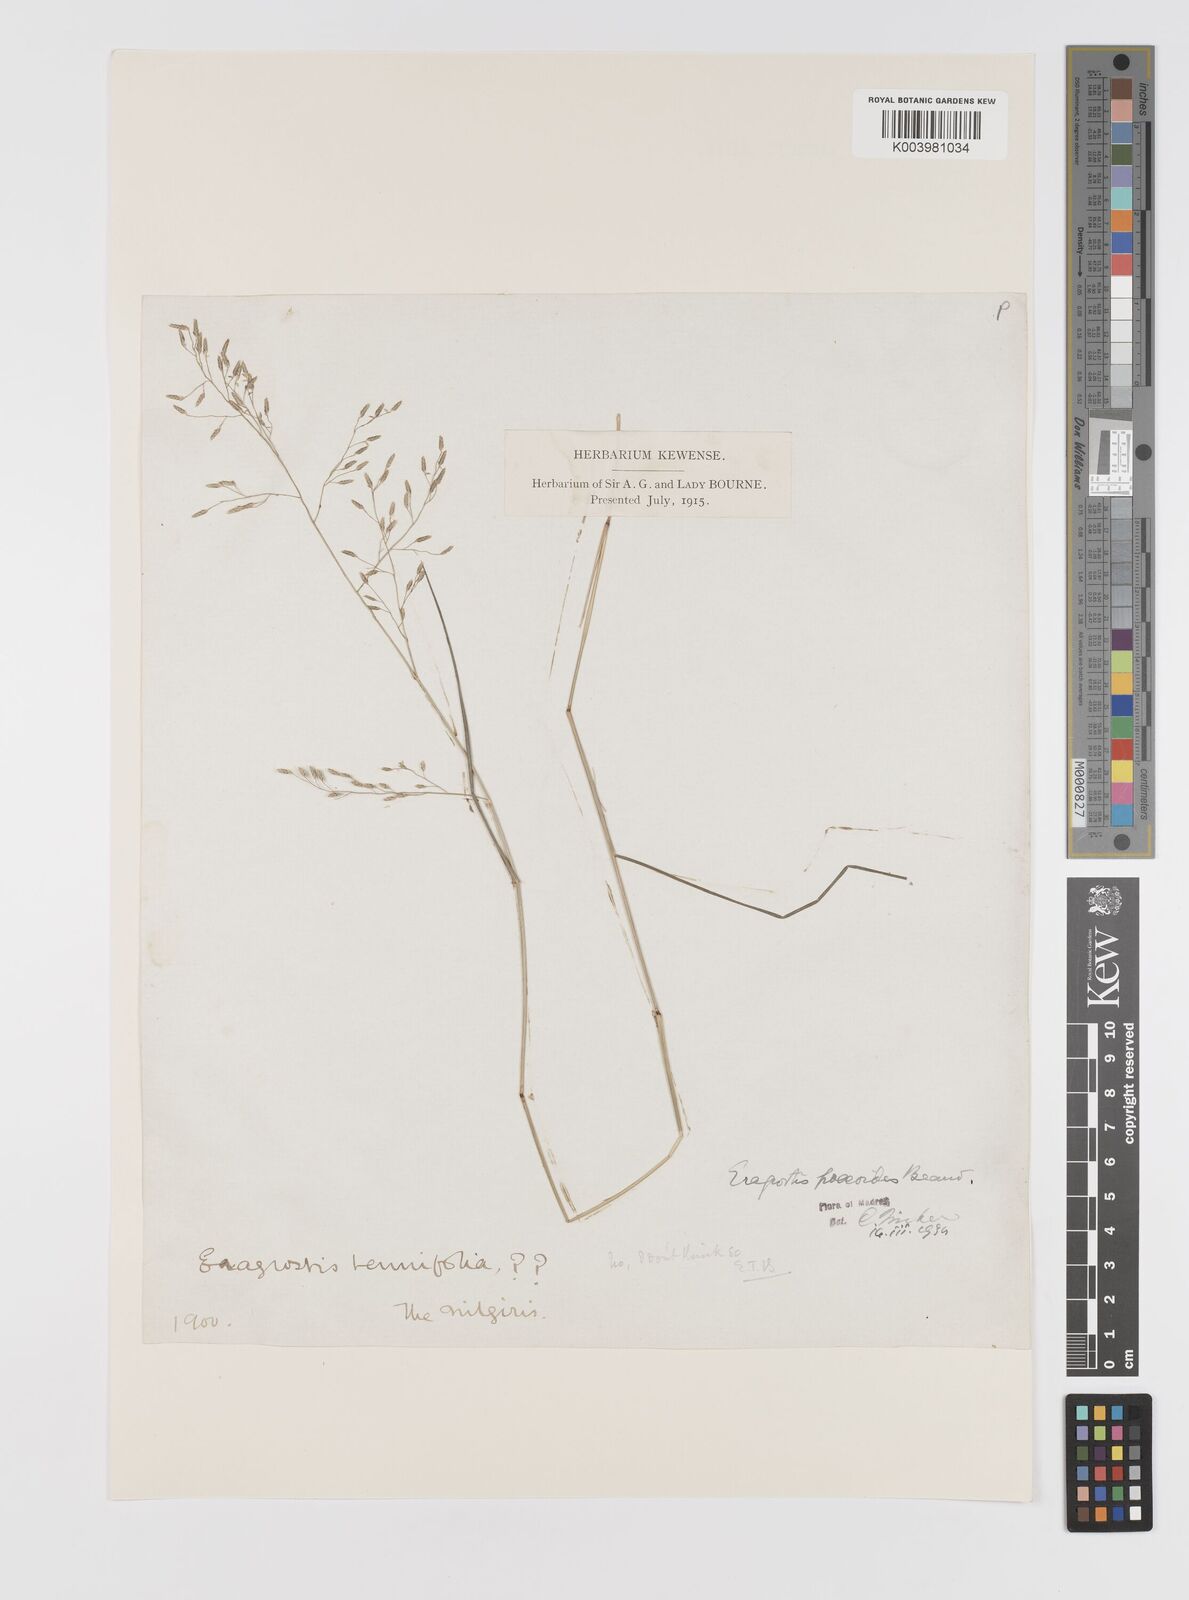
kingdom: Plantae
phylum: Tracheophyta
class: Liliopsida
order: Poales
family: Poaceae
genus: Eragrostis
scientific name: Eragrostis minor
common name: Small love-grass
